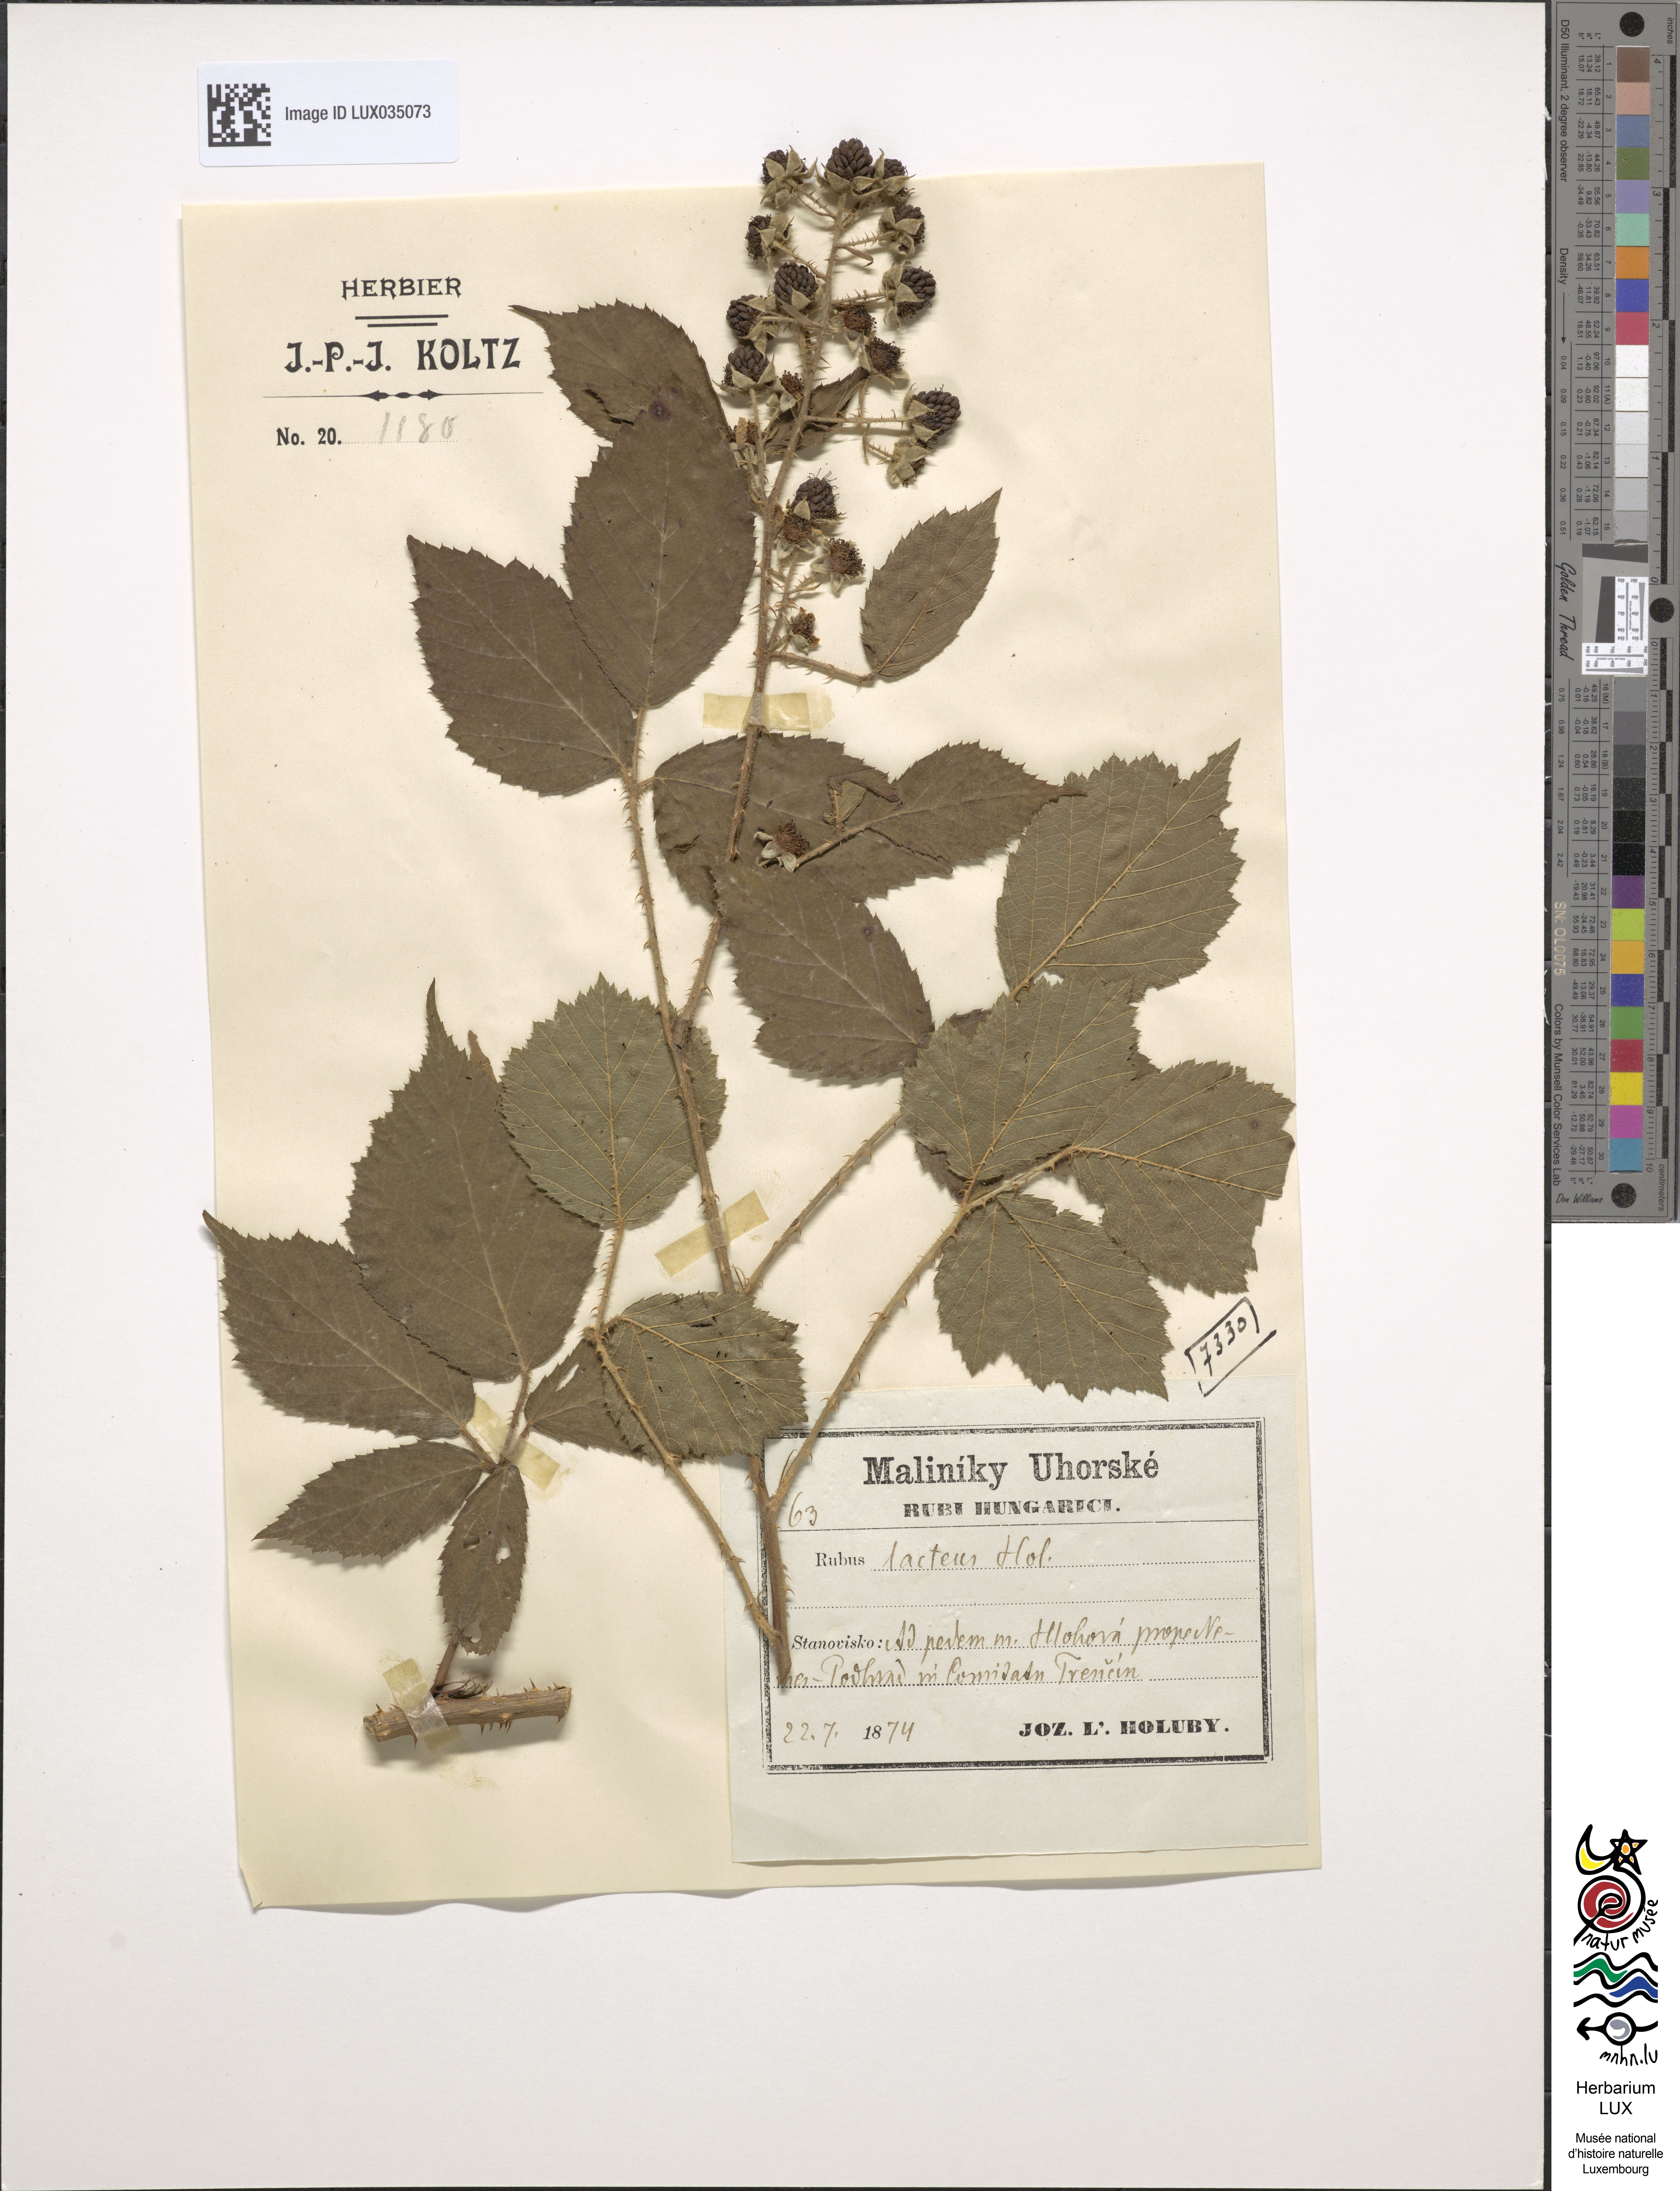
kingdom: Plantae
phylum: Tracheophyta
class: Magnoliopsida
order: Rosales
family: Rosaceae
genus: Rubus
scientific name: Rubus lacteus
